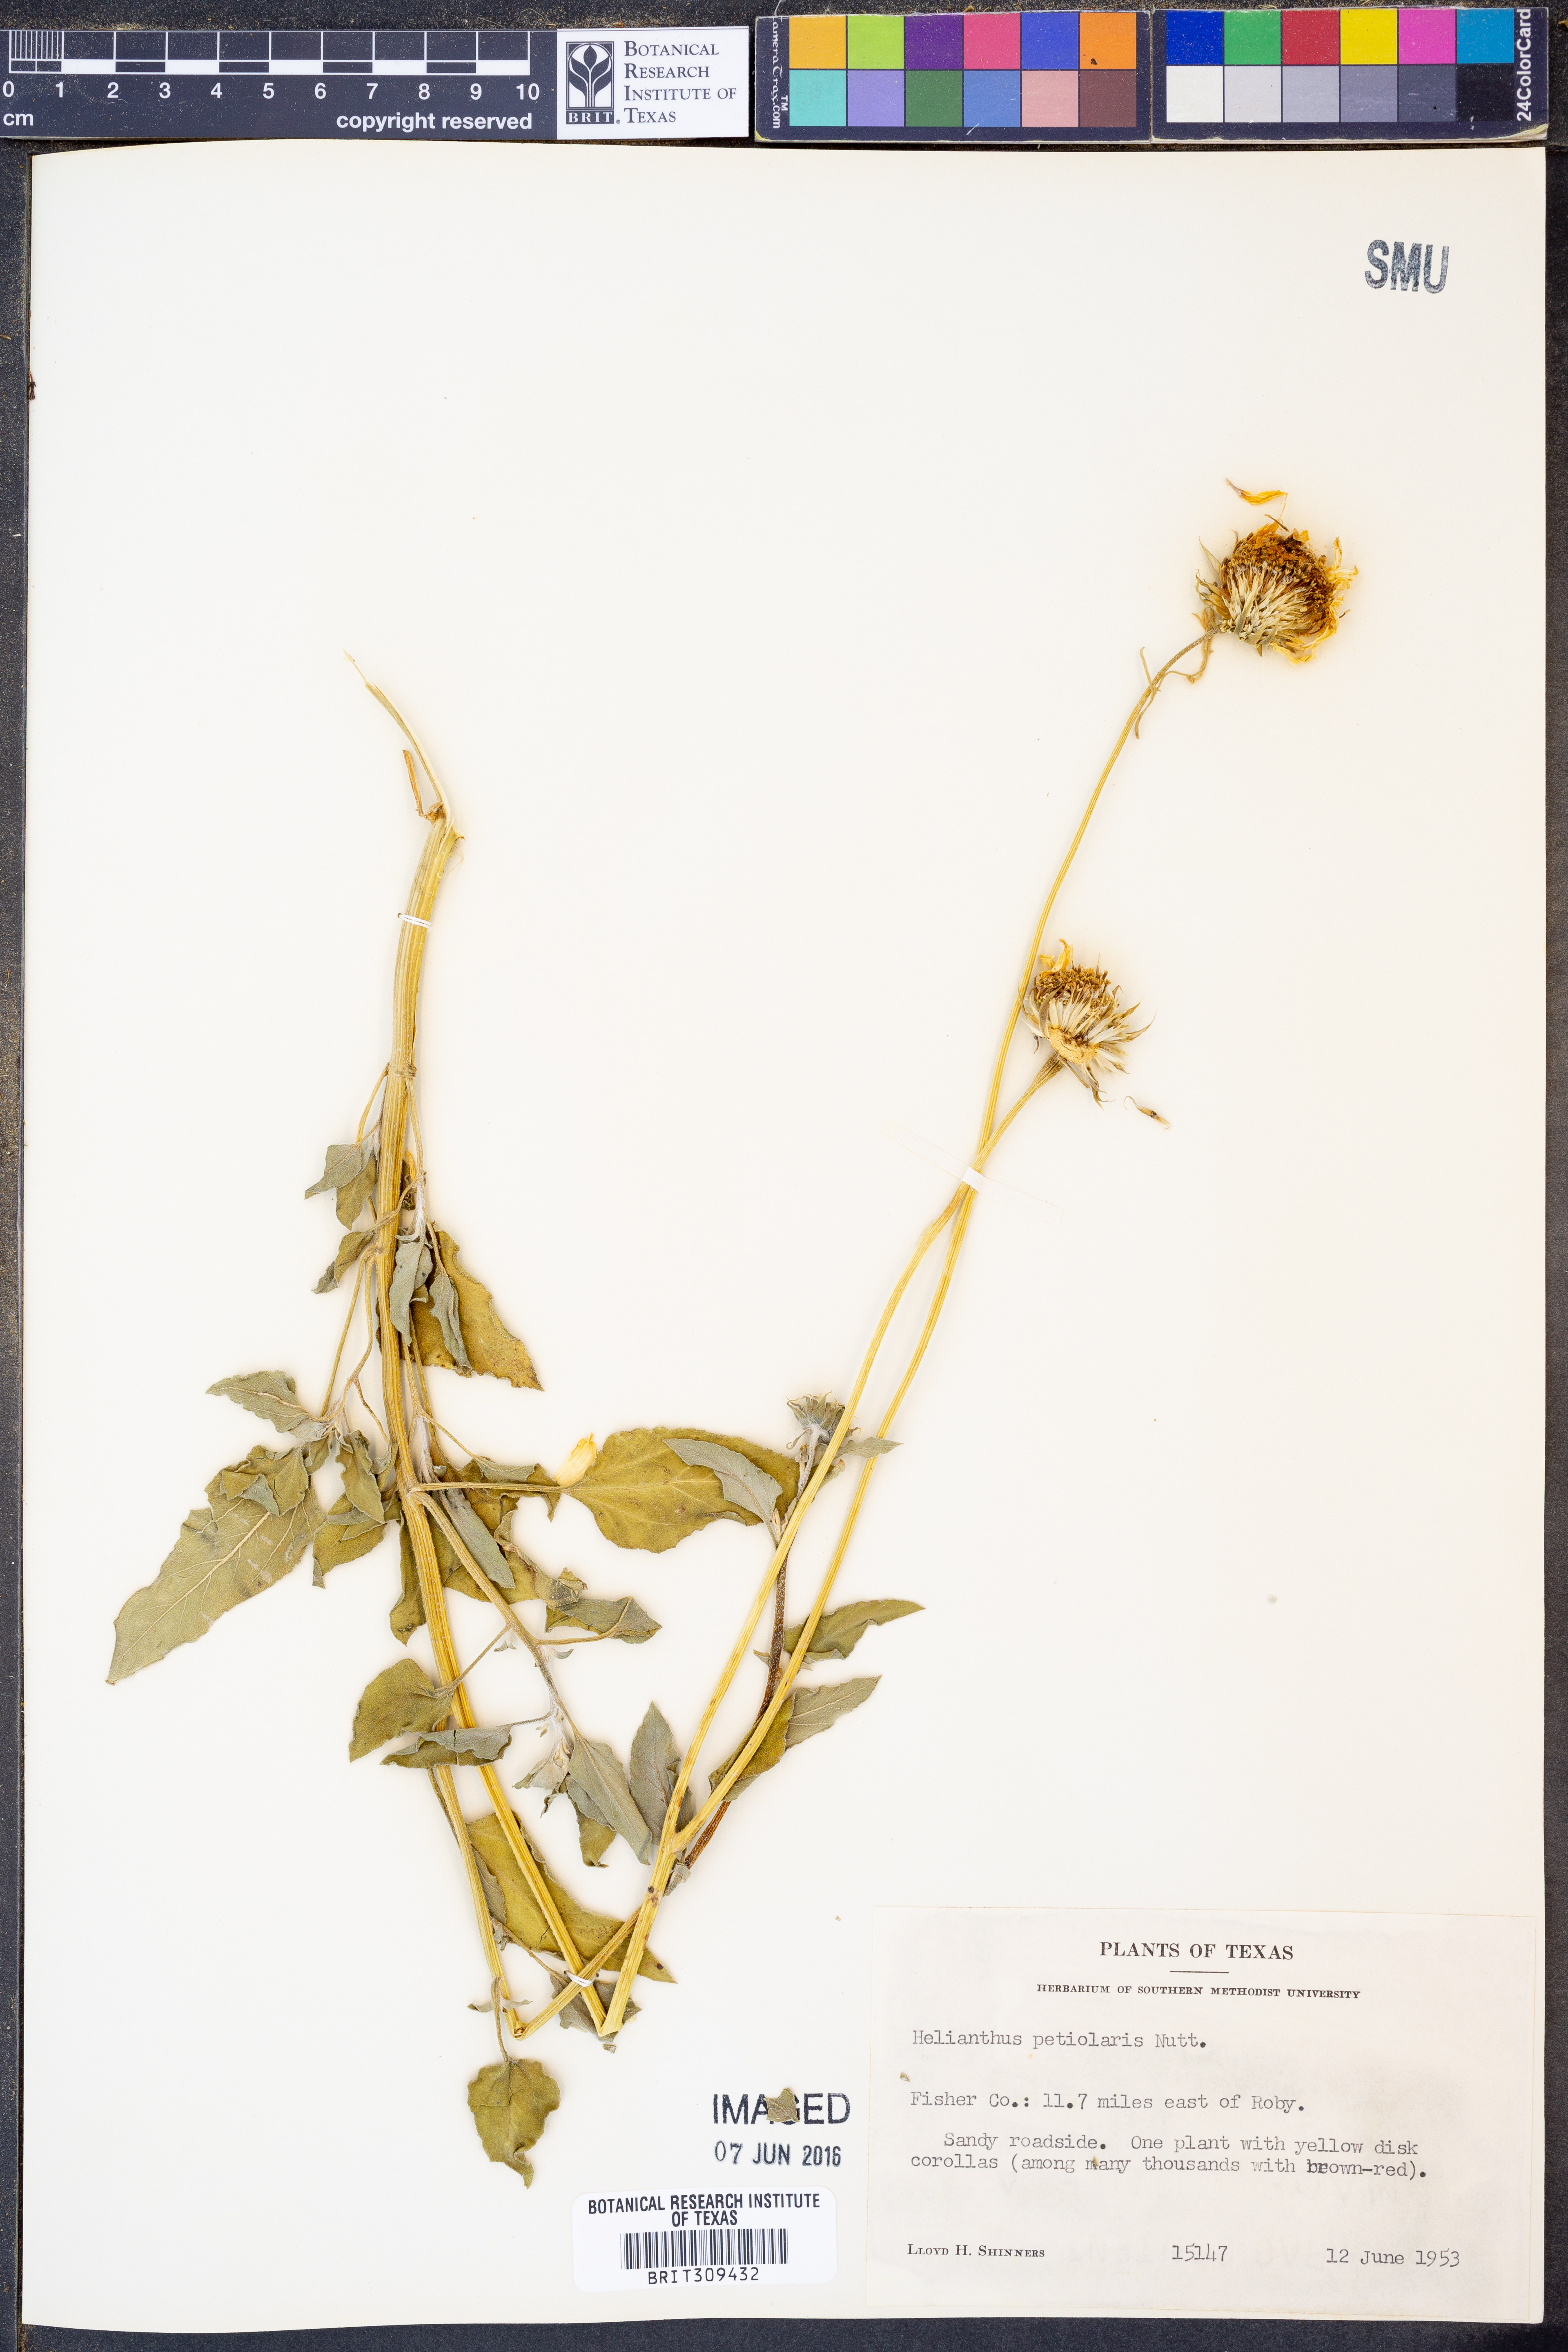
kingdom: Plantae
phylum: Tracheophyta
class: Magnoliopsida
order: Asterales
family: Asteraceae
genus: Helianthus
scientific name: Helianthus petiolaris
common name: Lesser sunflower
